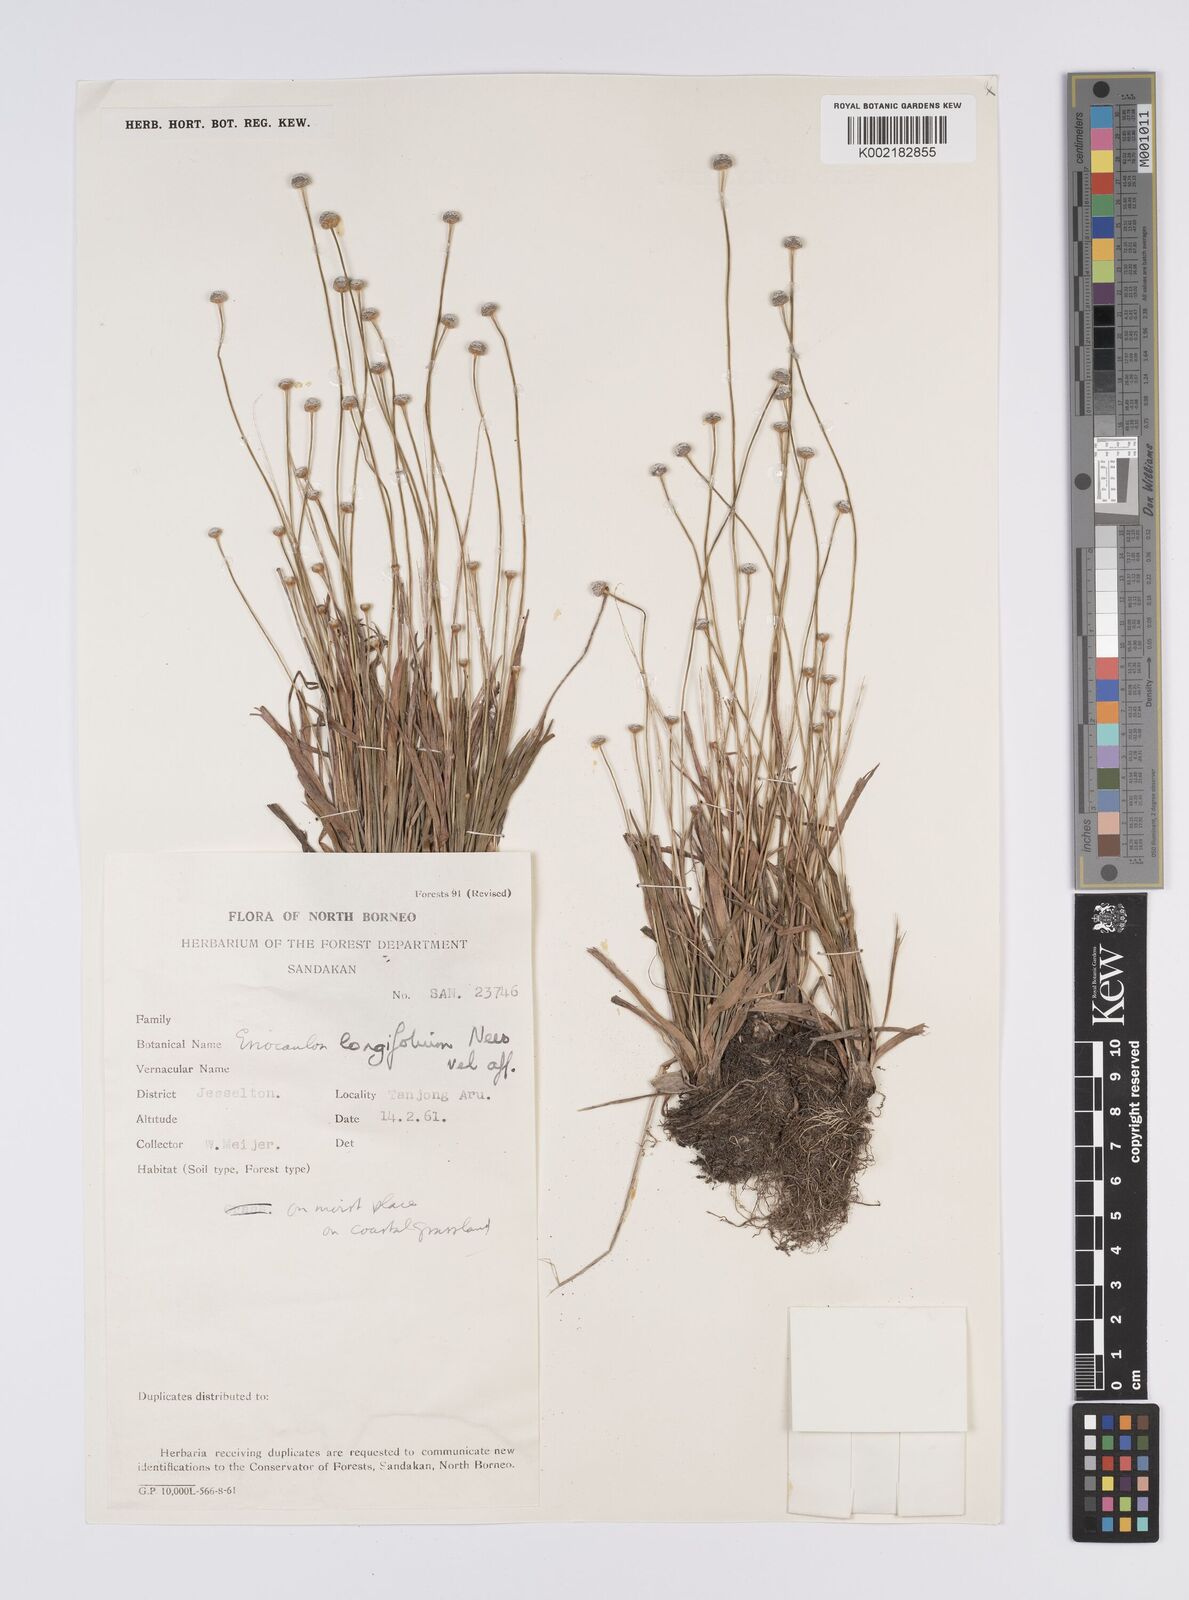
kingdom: Plantae
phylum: Tracheophyta
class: Liliopsida
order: Poales
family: Eriocaulaceae
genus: Eriocaulon
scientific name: Eriocaulon willdenovianum
